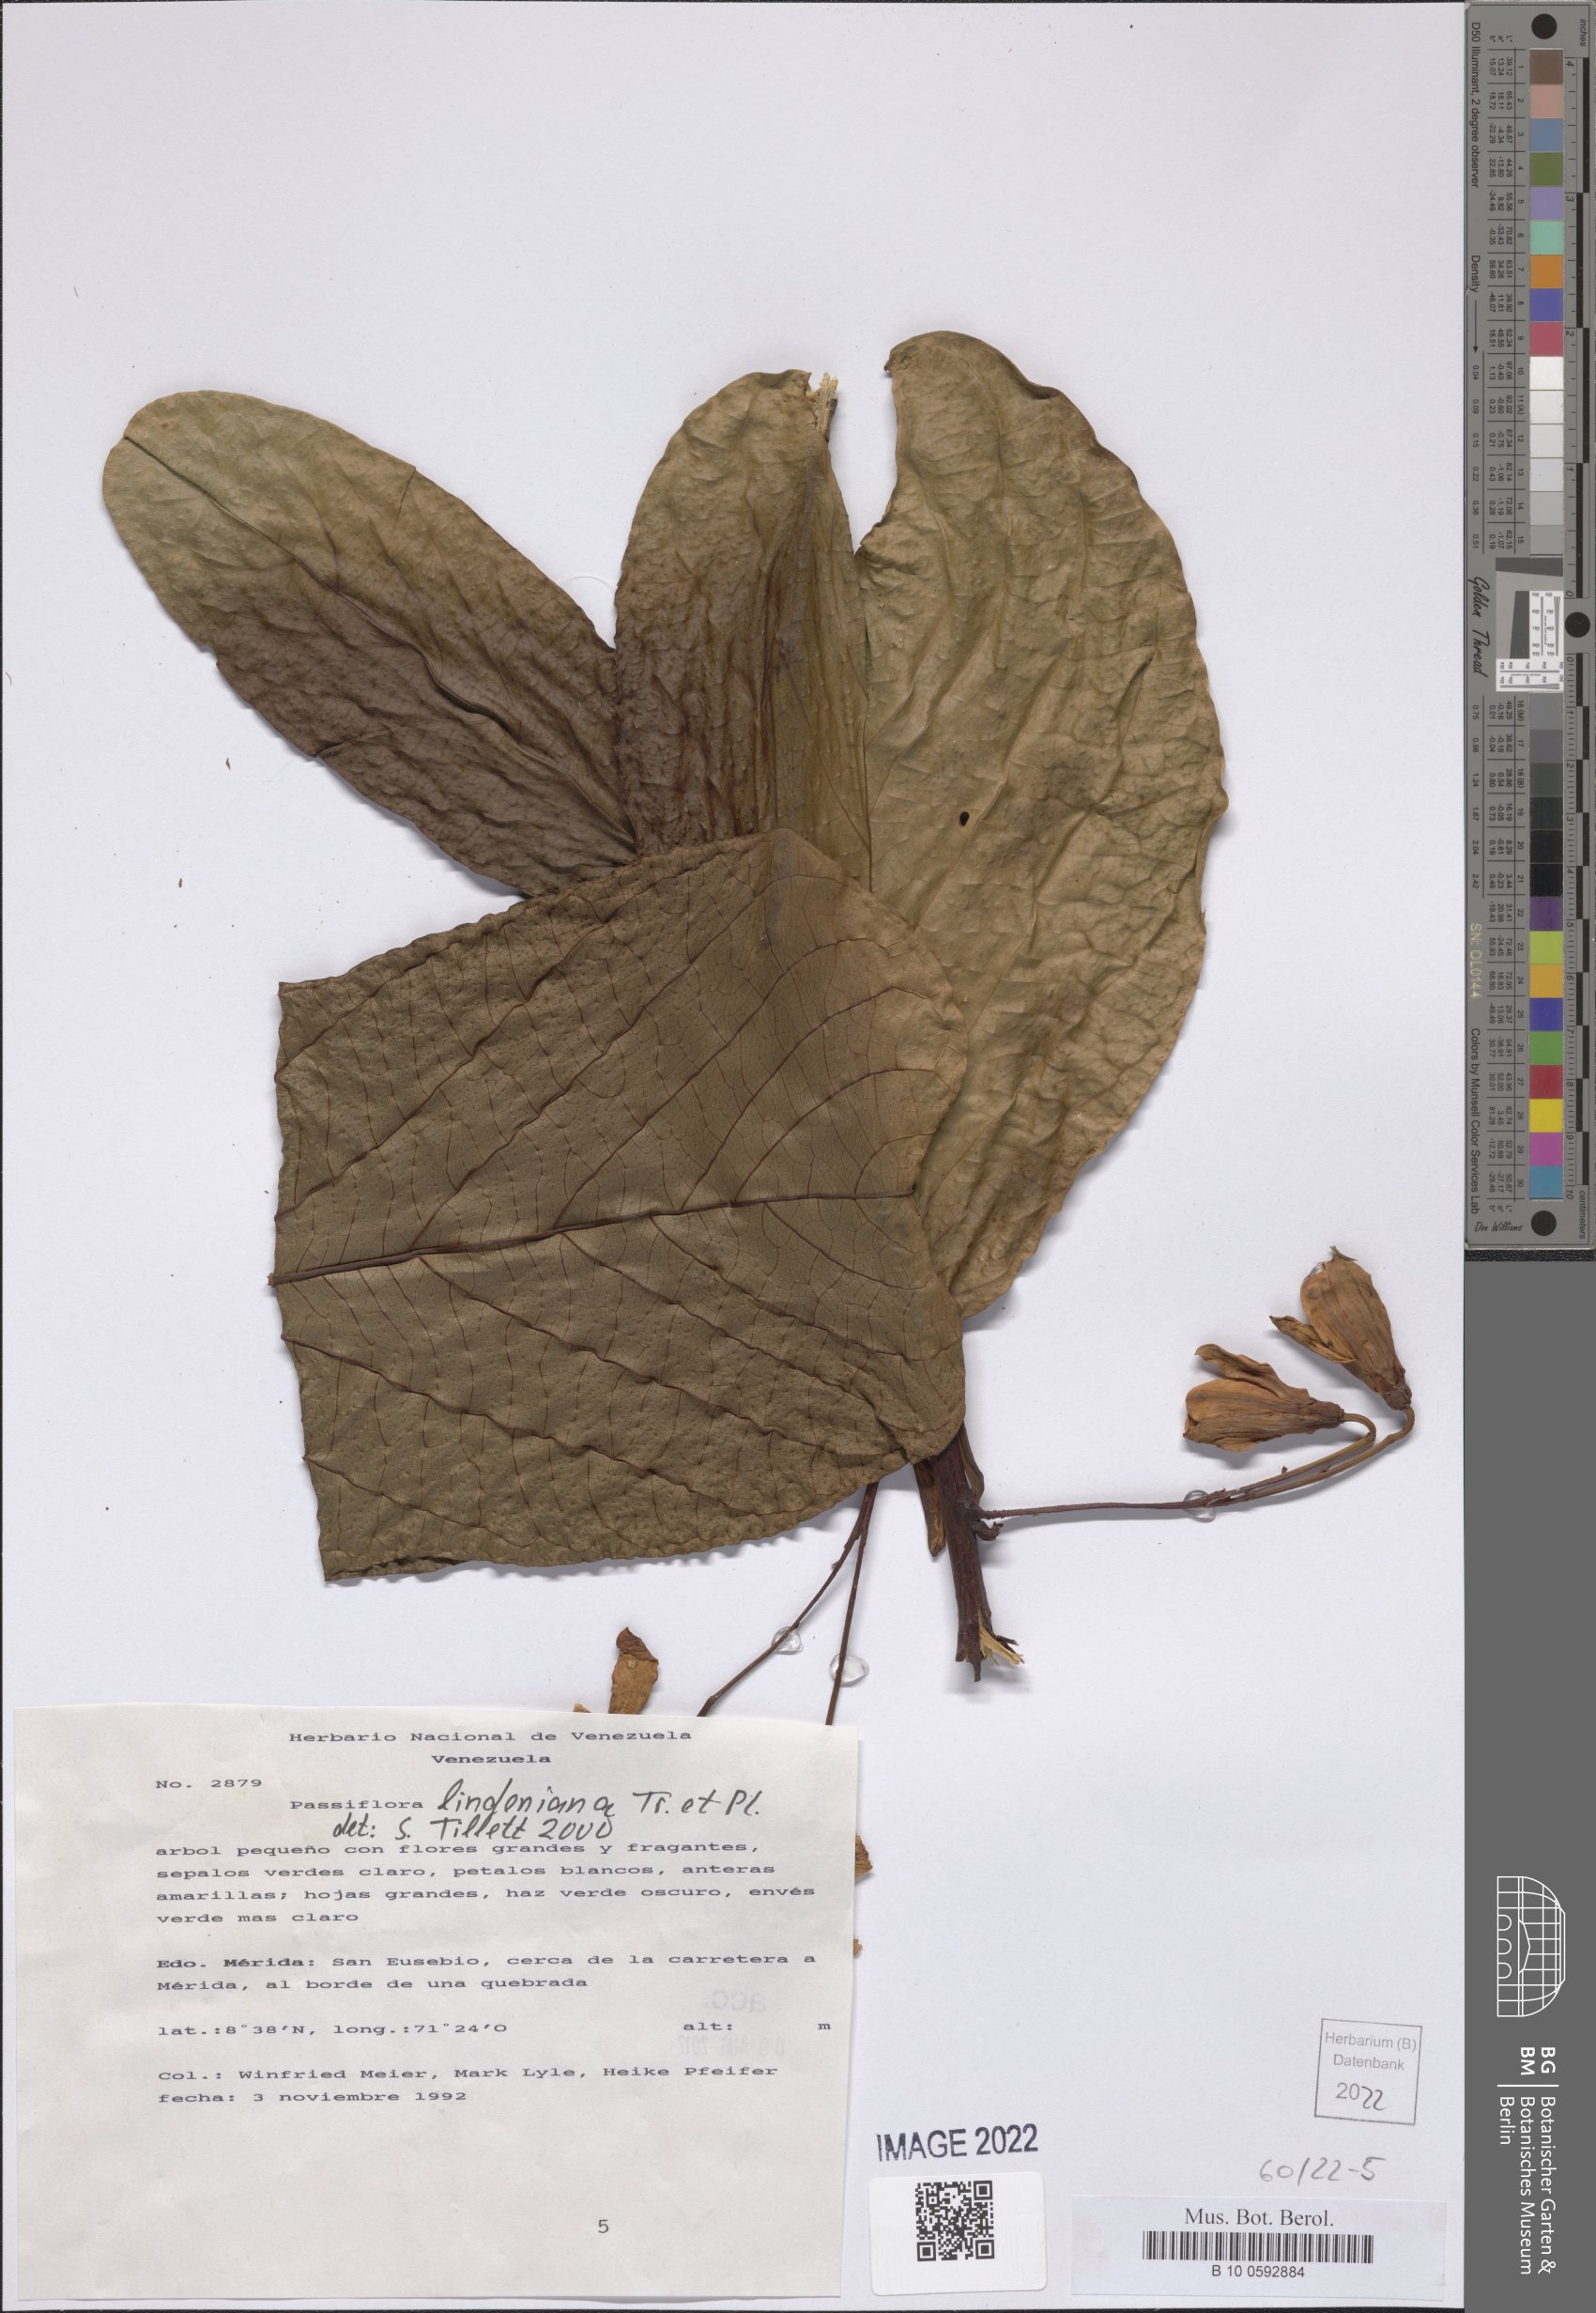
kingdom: Plantae
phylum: Tracheophyta
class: Magnoliopsida
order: Malpighiales
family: Passifloraceae
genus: Passiflora
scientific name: Passiflora lindeniana
